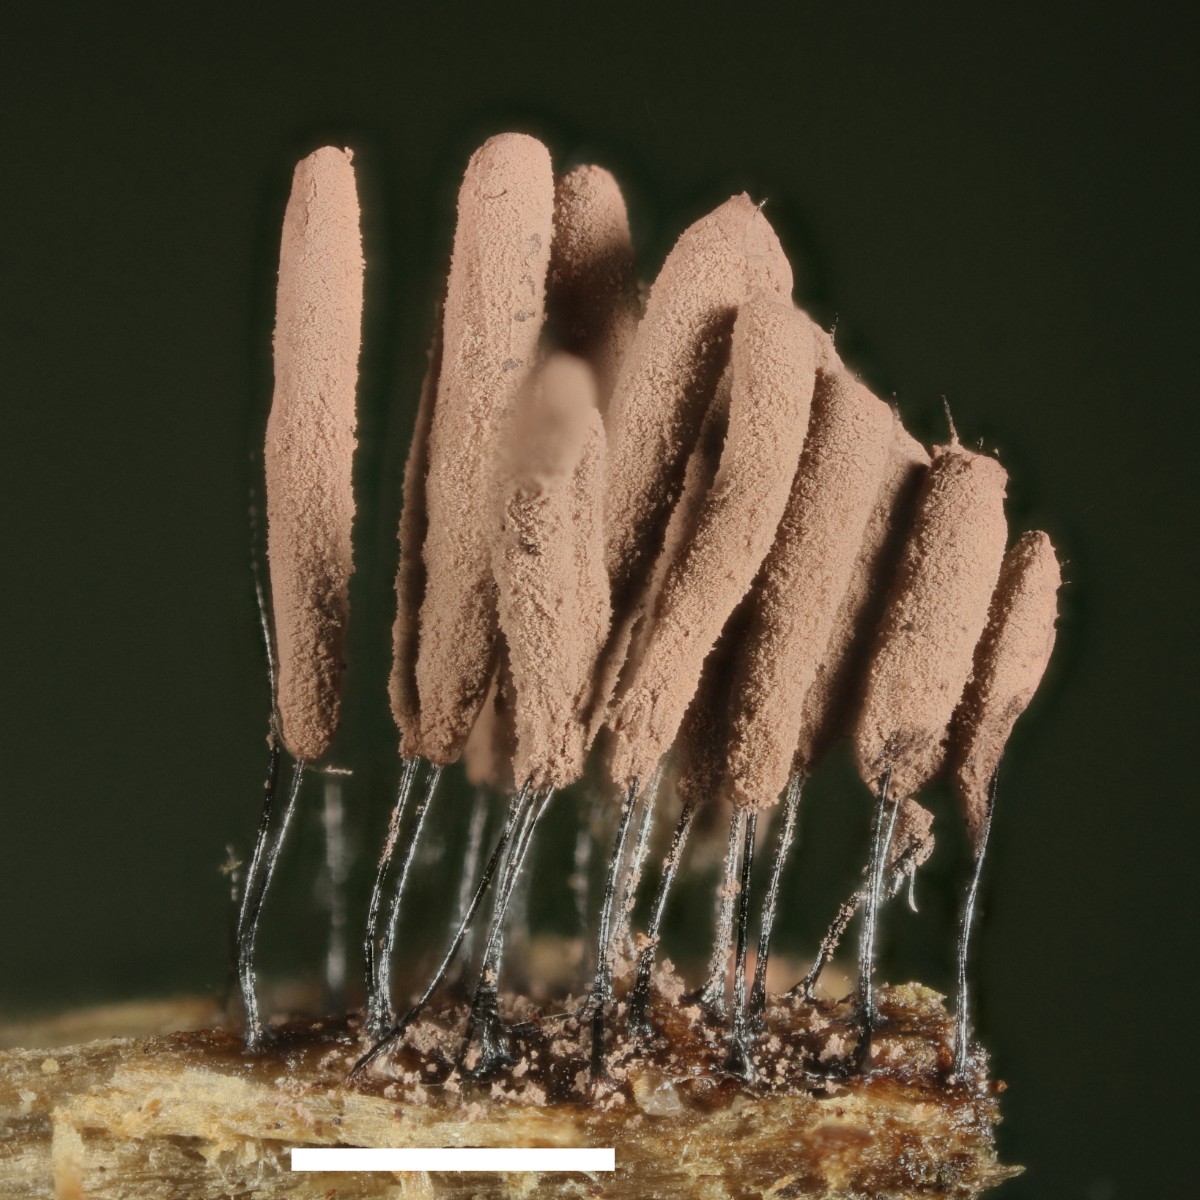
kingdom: Protozoa
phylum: Mycetozoa
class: Myxomycetes
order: Stemonitidales
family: Stemonitidaceae
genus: Stemonitopsis
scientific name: Stemonitopsis hyperopta
